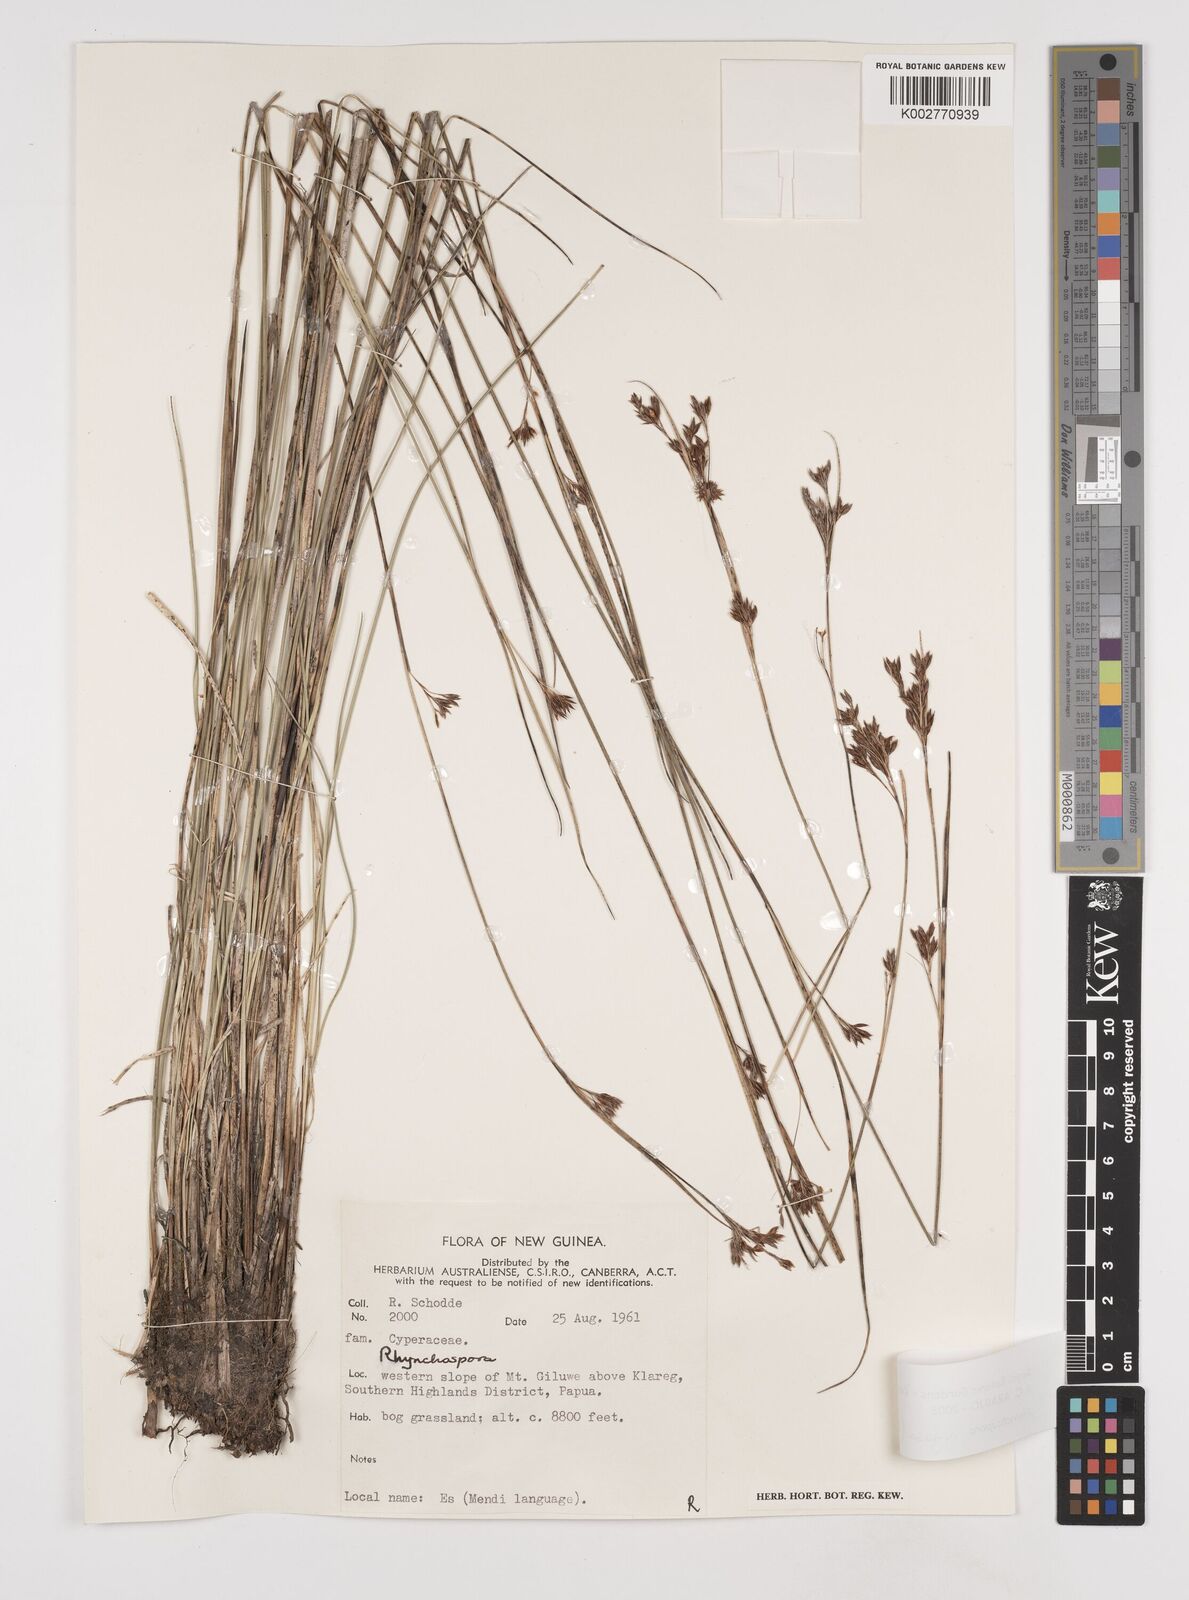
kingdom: Plantae
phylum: Tracheophyta
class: Liliopsida
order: Poales
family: Cyperaceae
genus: Rhynchospora
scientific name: Rhynchospora rugosa
